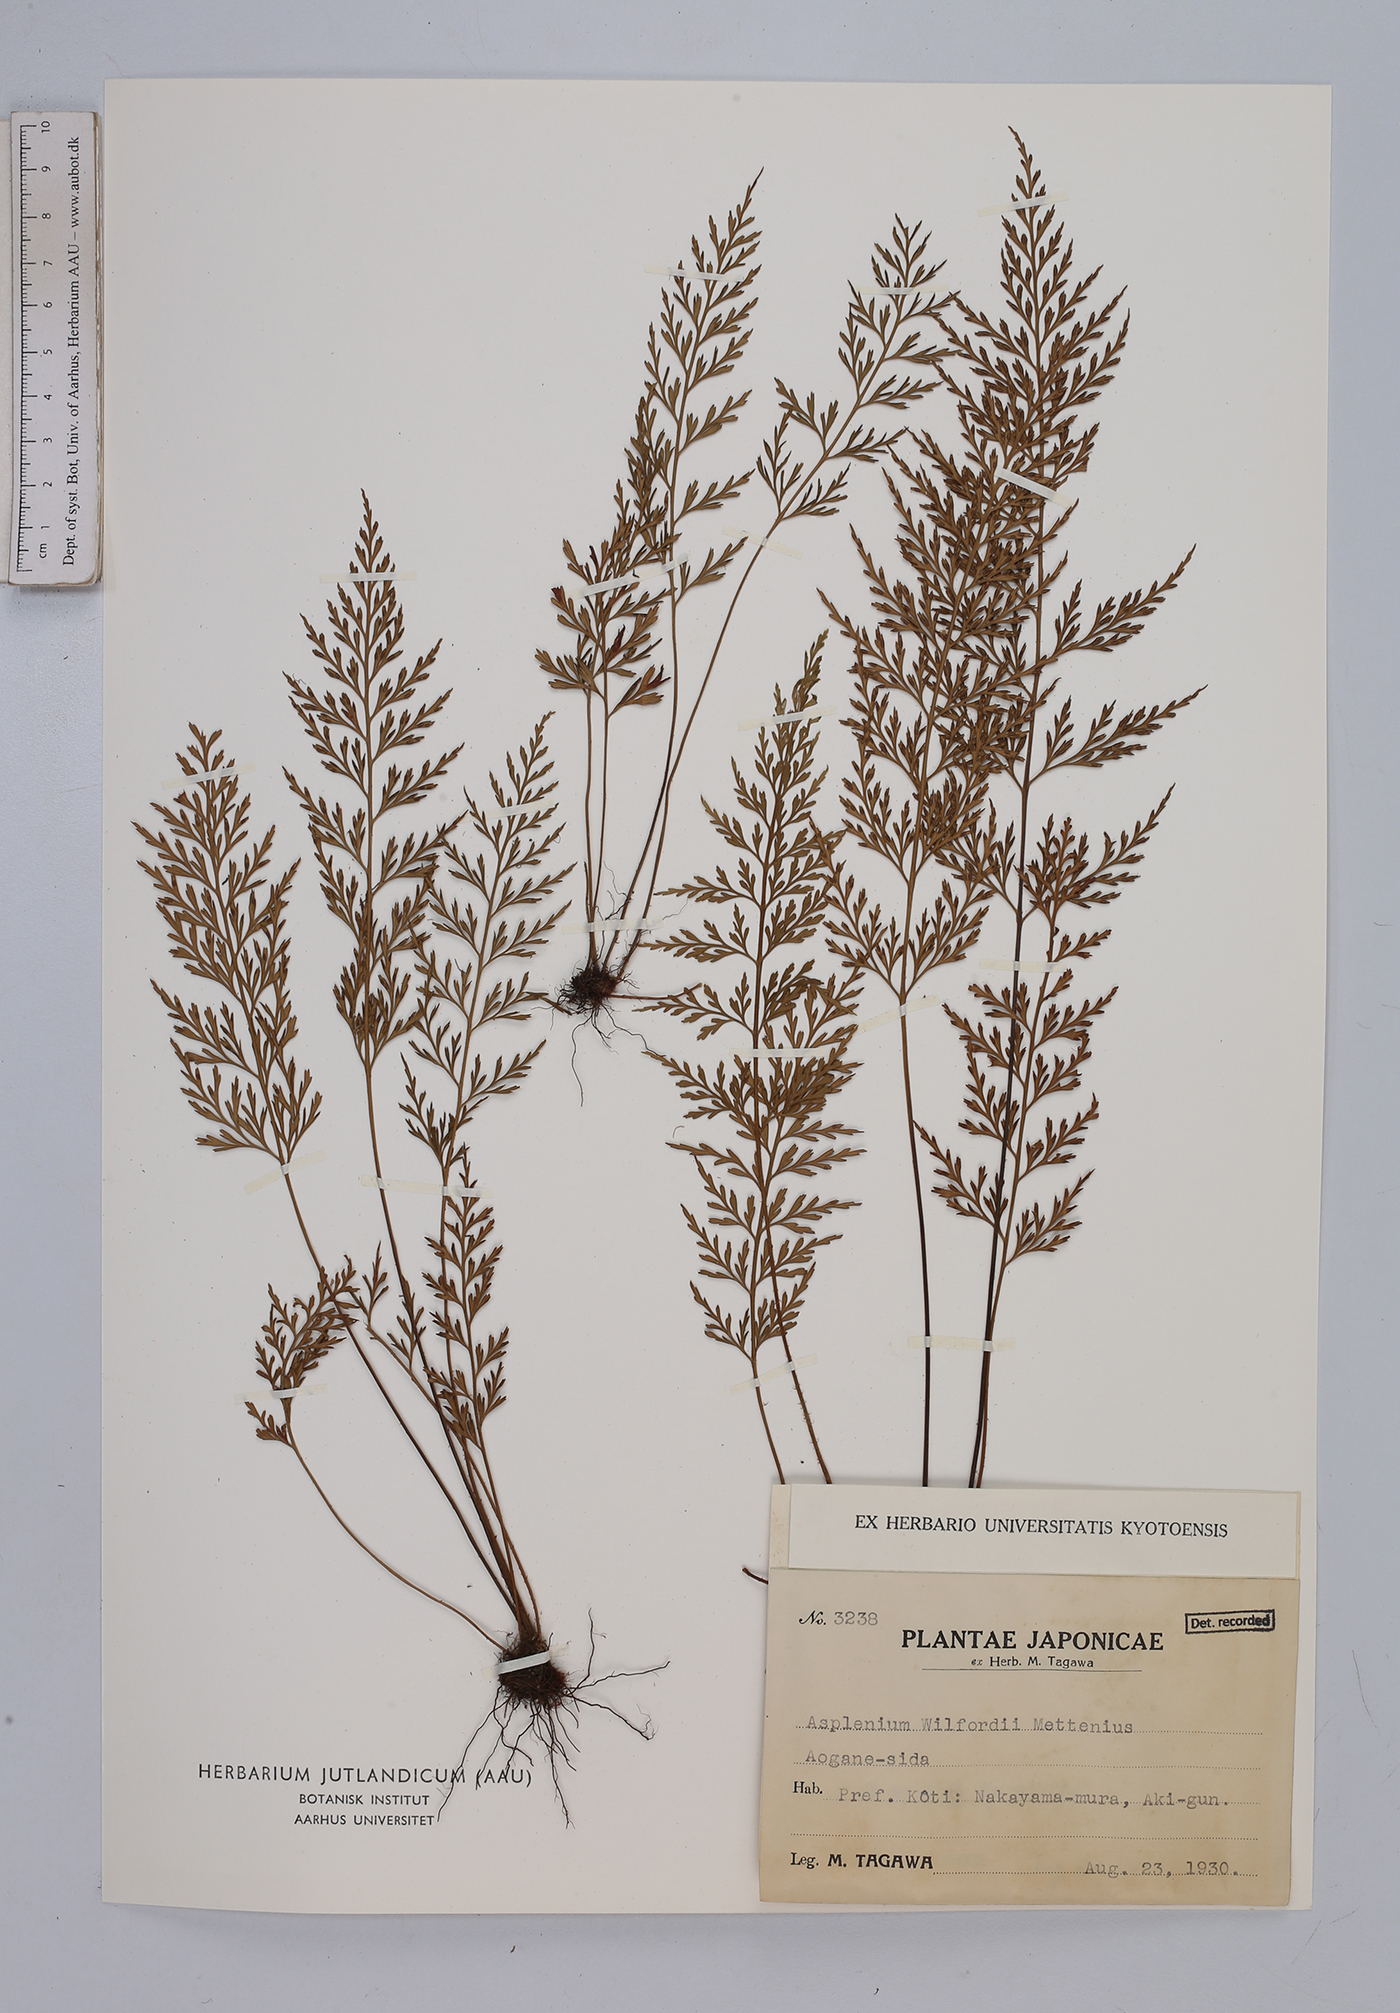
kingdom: Plantae
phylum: Tracheophyta
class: Polypodiopsida
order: Polypodiales
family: Aspleniaceae
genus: Asplenium
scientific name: Asplenium wilfordii
